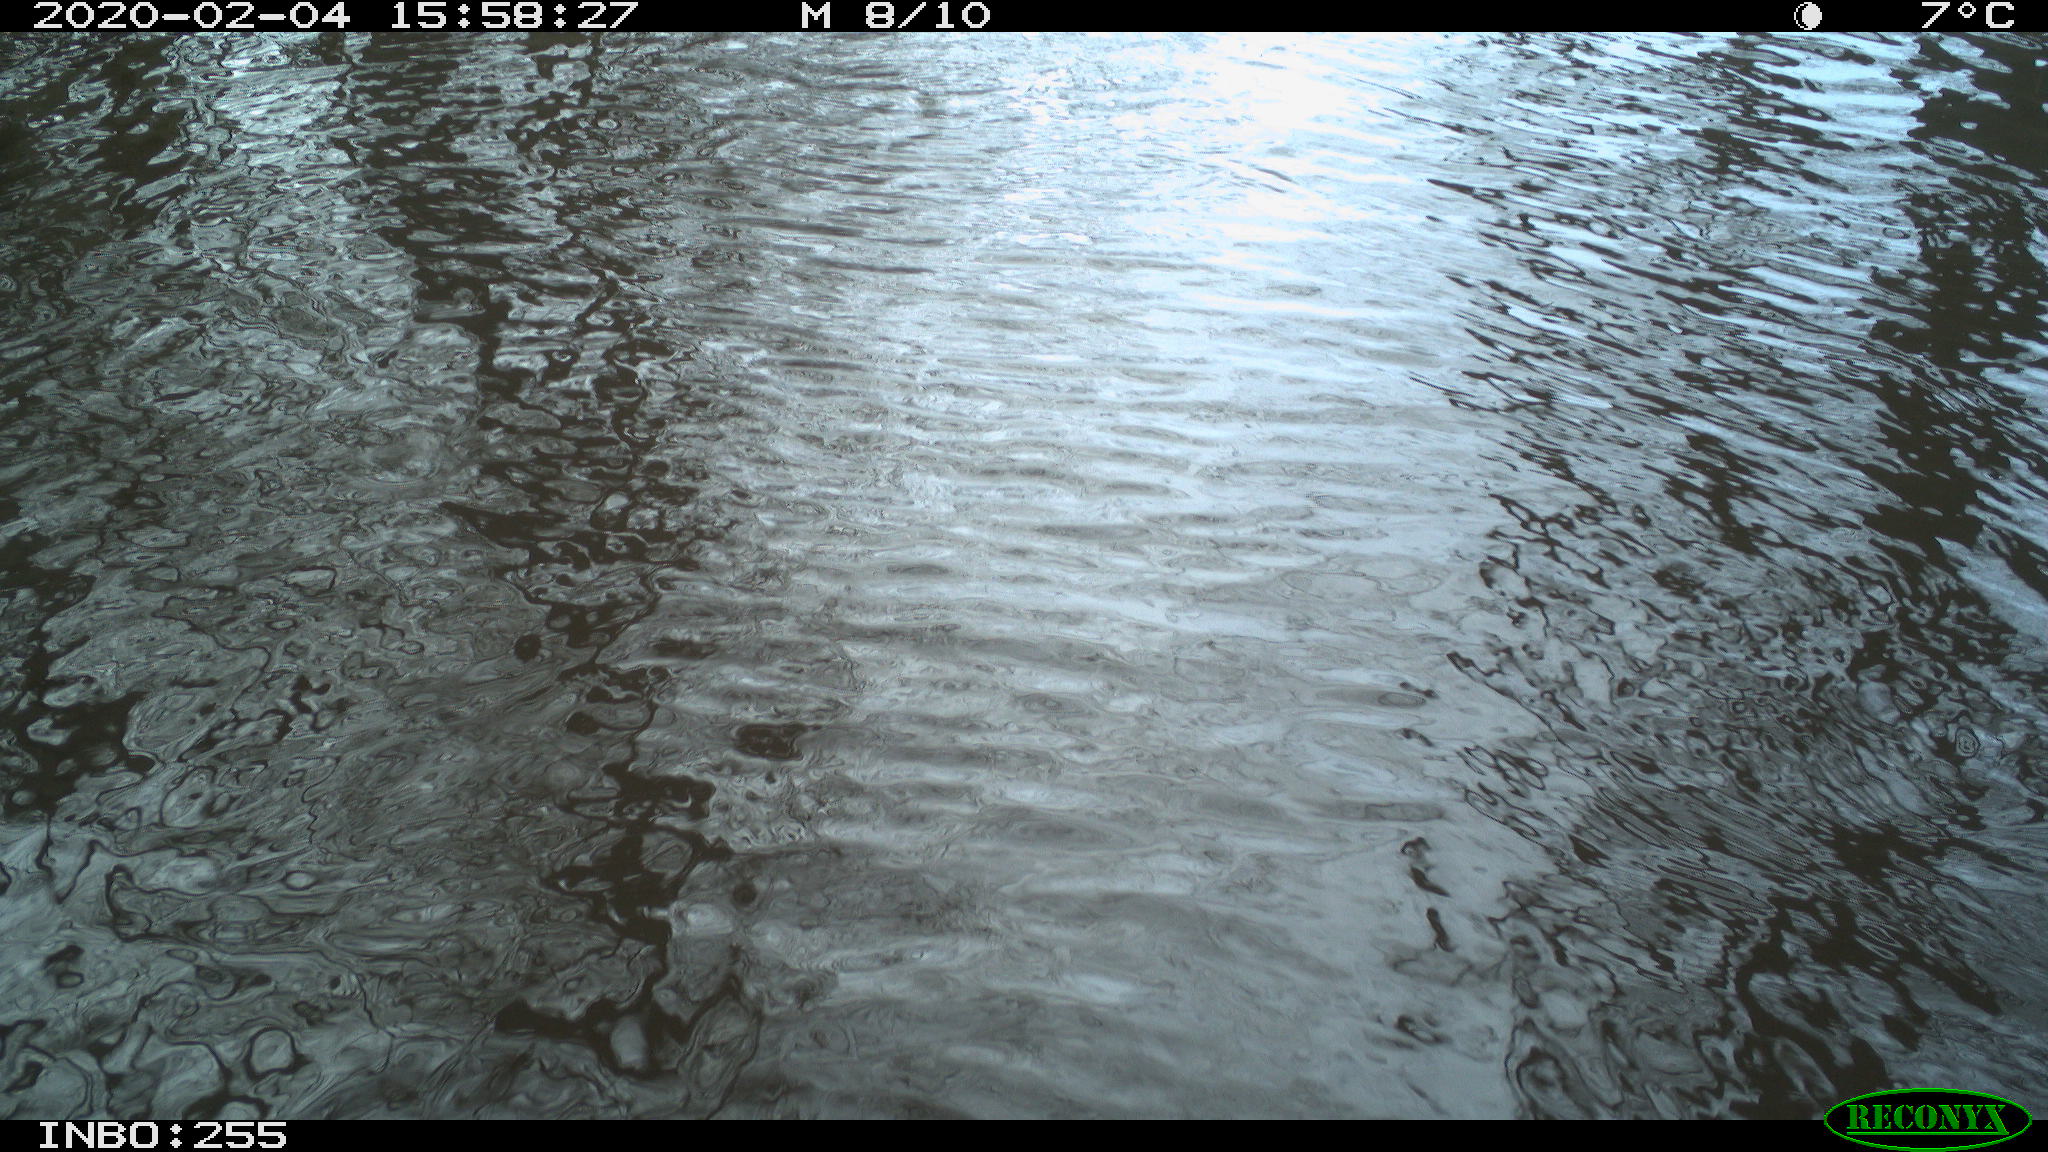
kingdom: Animalia
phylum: Chordata
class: Aves
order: Gruiformes
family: Rallidae
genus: Fulica
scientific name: Fulica atra
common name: Eurasian coot
